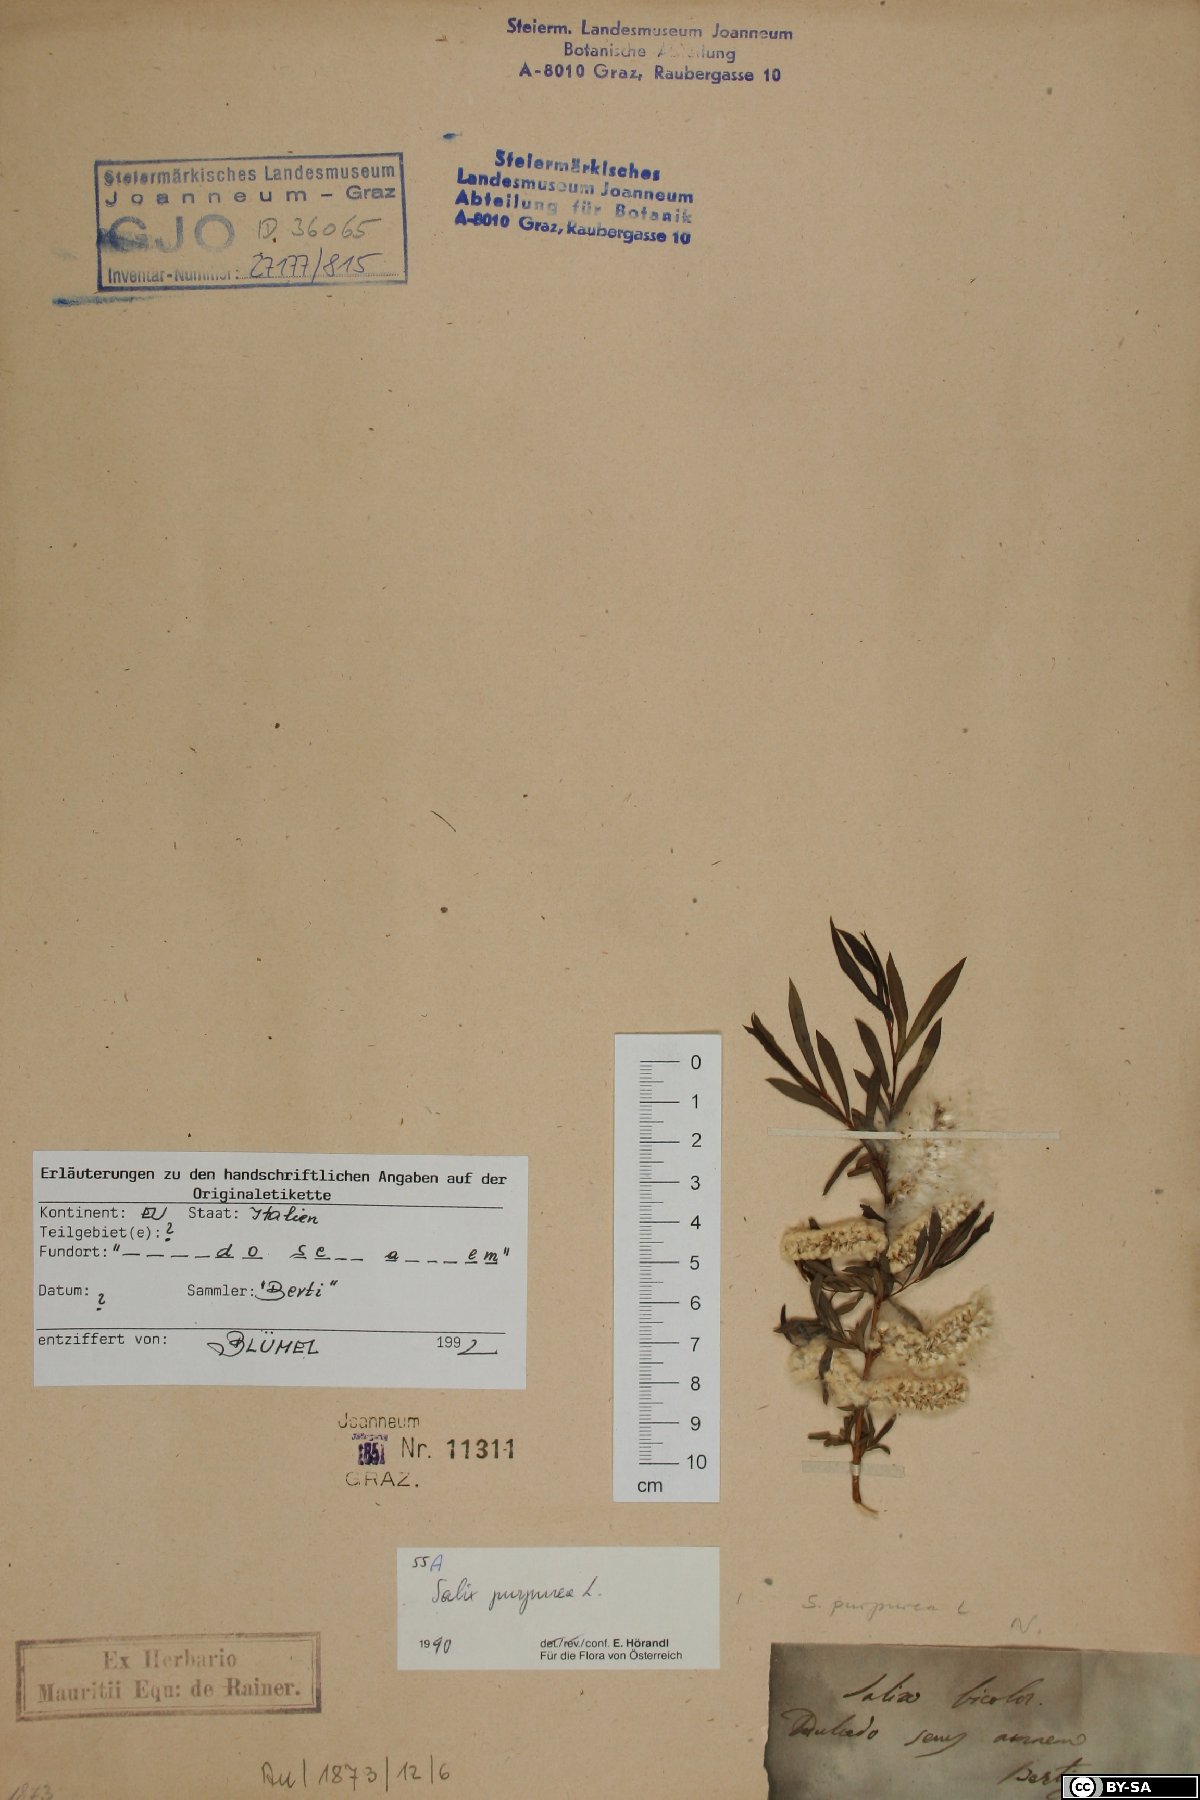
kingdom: Plantae
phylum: Tracheophyta
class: Magnoliopsida
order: Malpighiales
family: Salicaceae
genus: Salix
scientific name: Salix purpurea
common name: Purple willow
